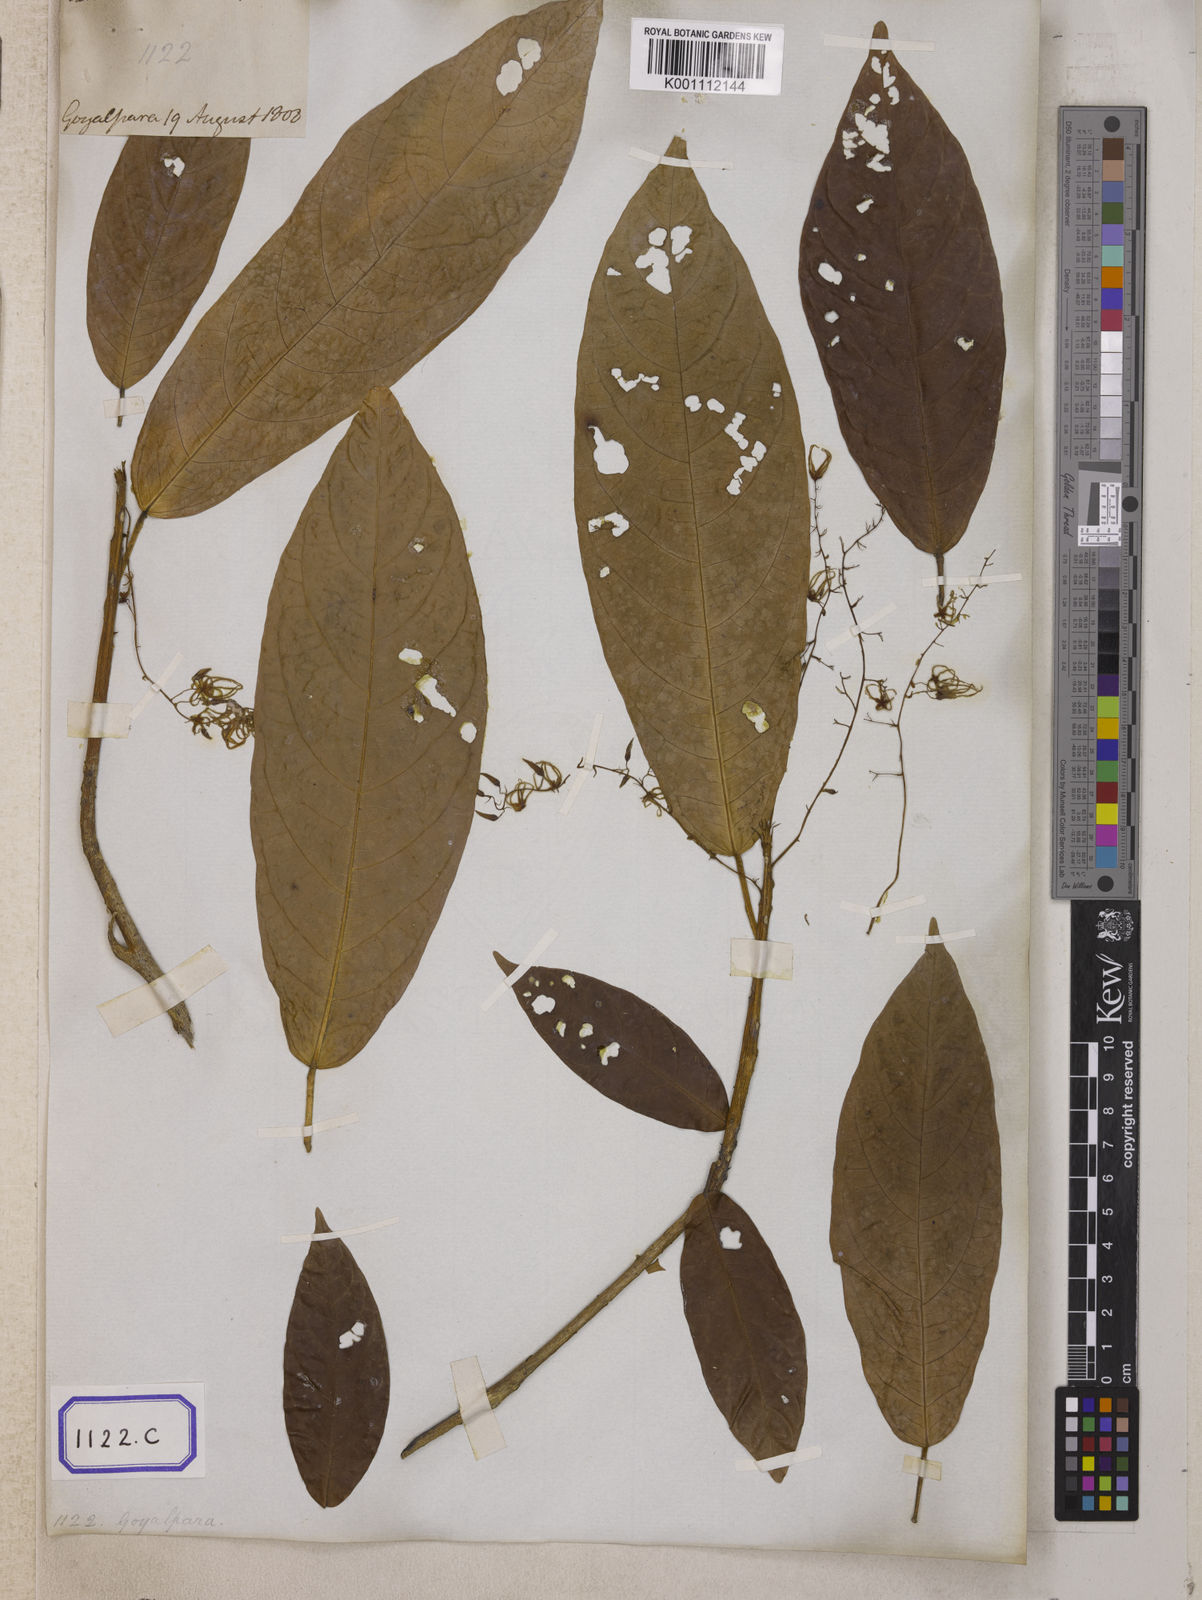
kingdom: Plantae
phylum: Tracheophyta
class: Magnoliopsida
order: Malvales
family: Malvaceae
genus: Sterculia
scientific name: Sterculia
